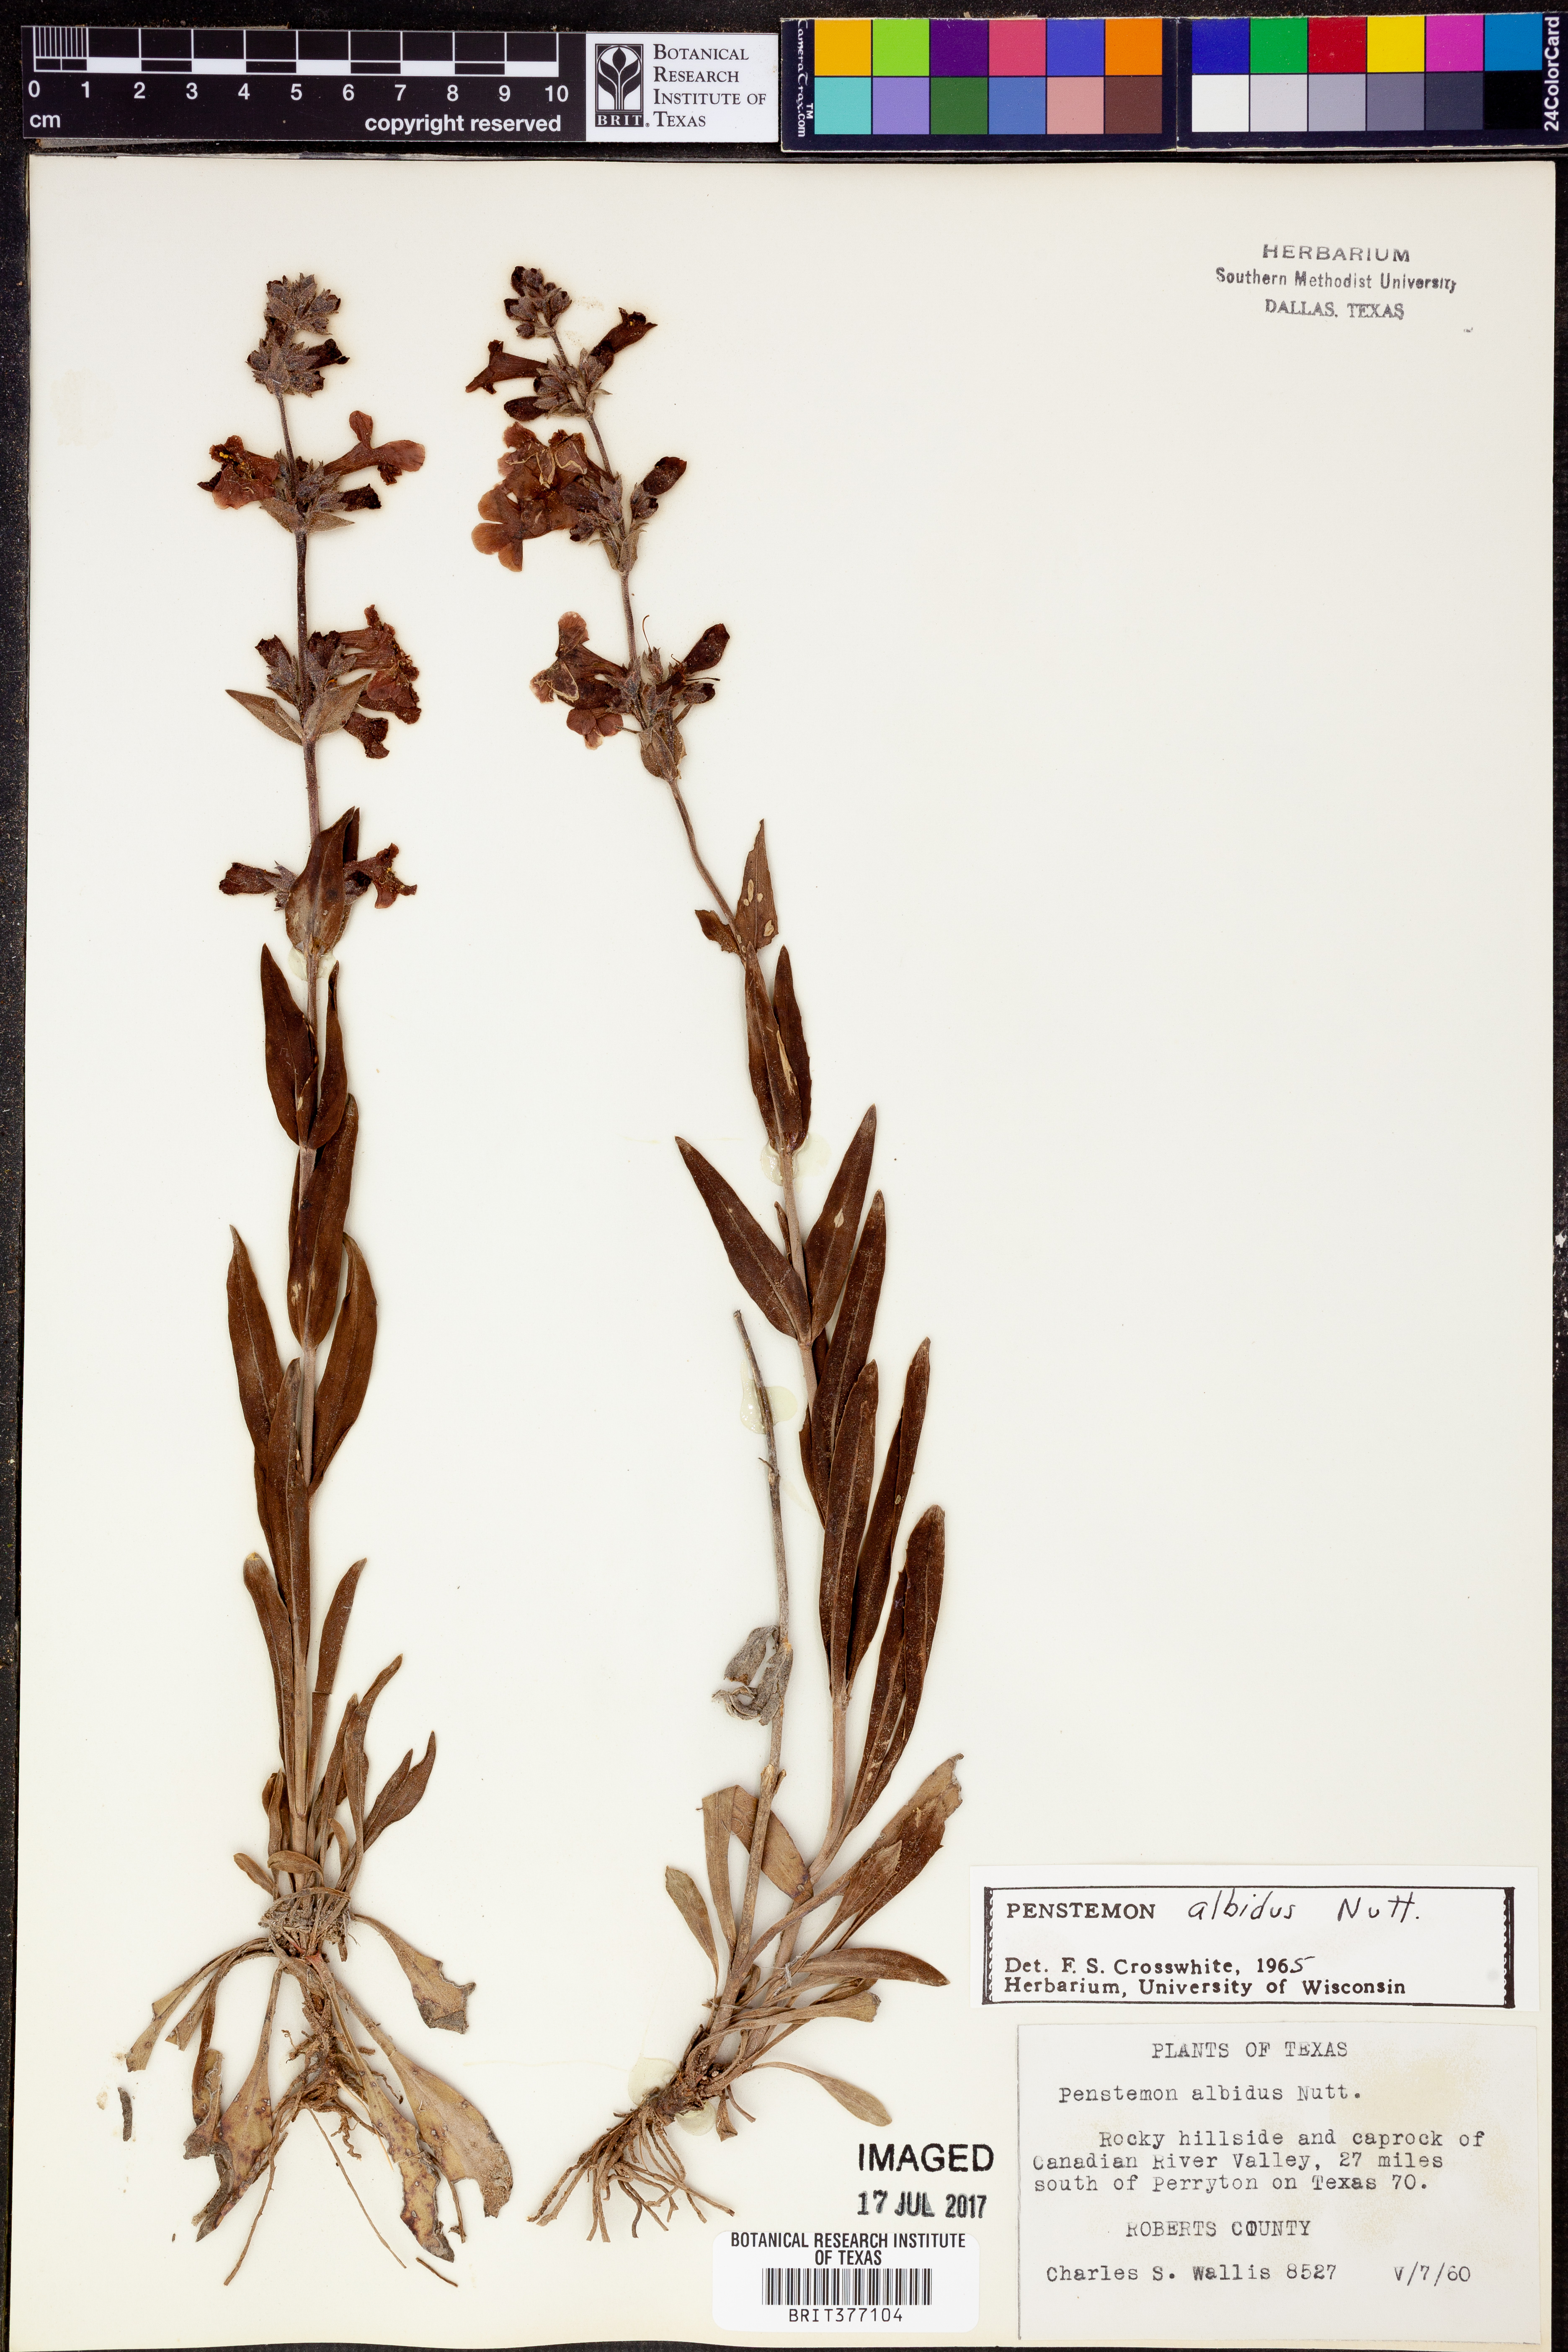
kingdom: Plantae
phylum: Tracheophyta
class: Magnoliopsida
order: Lamiales
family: Plantaginaceae
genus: Penstemon
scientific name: Penstemon albidus
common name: White beardtongue
